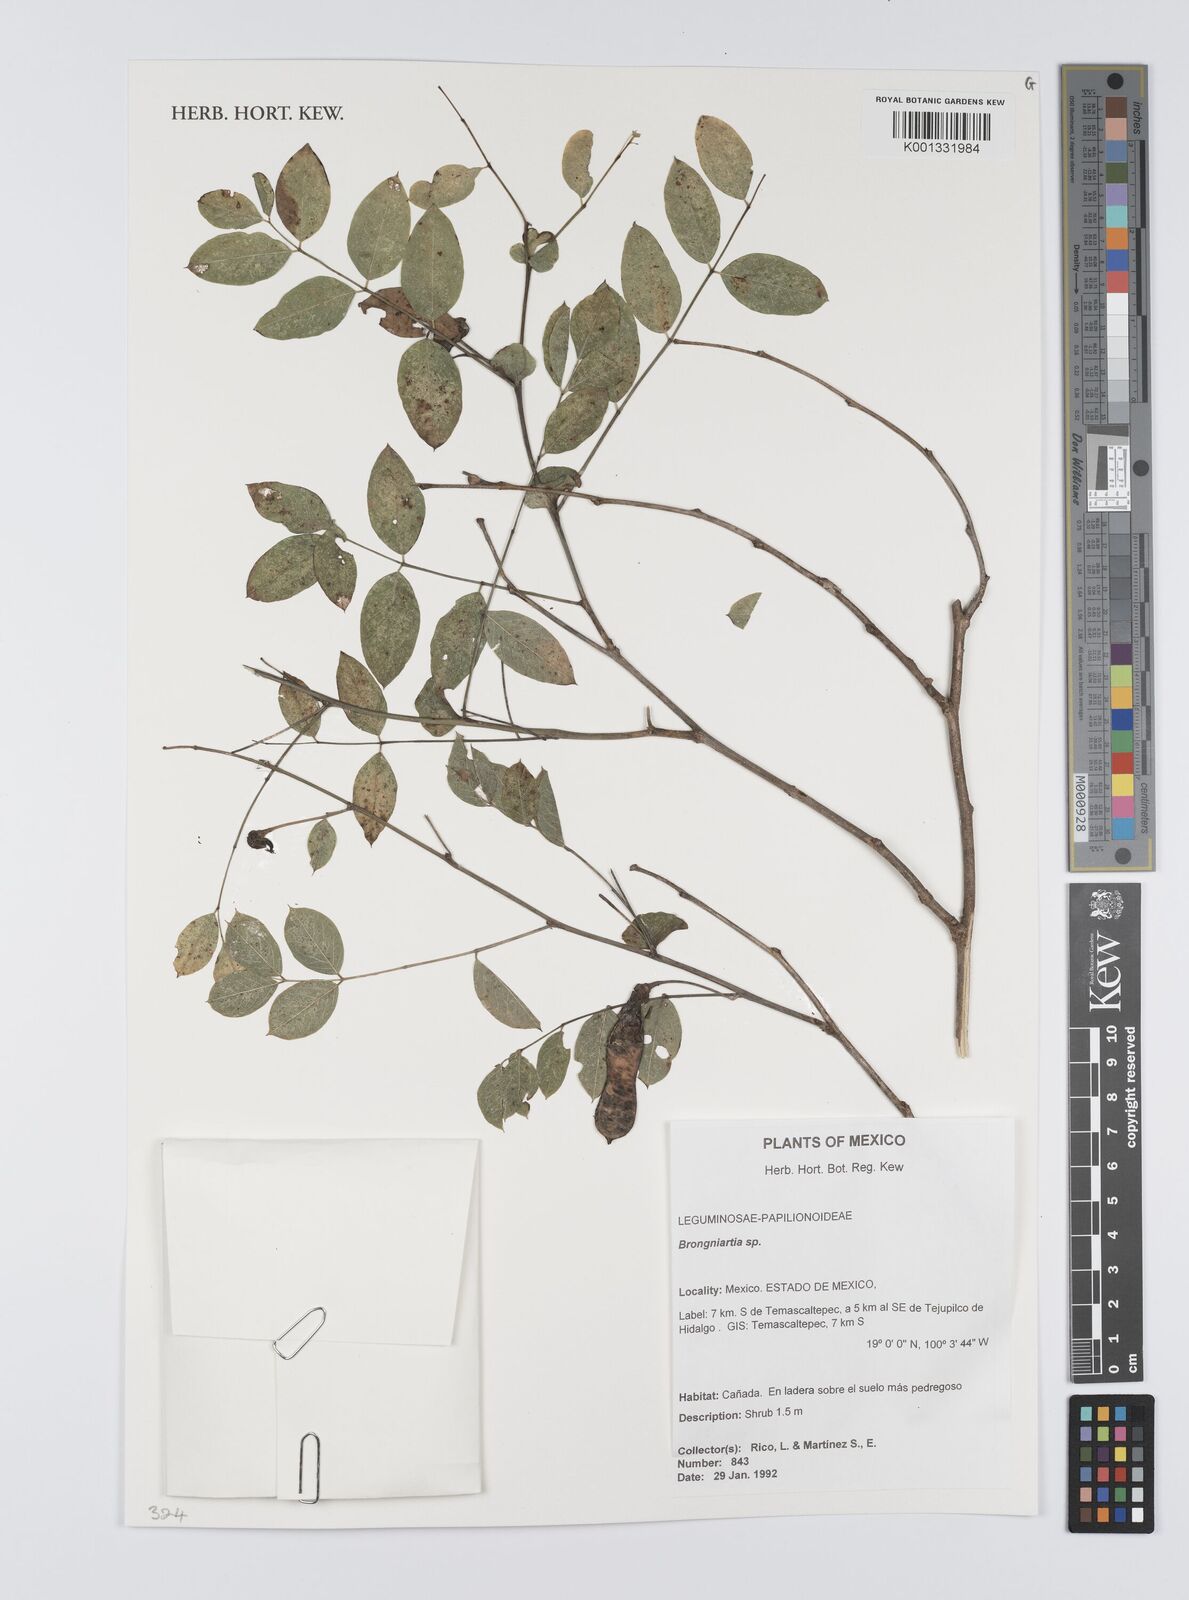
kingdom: Plantae
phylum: Tracheophyta
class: Magnoliopsida
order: Fabales
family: Fabaceae
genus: Brongniartia
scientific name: Brongniartia
